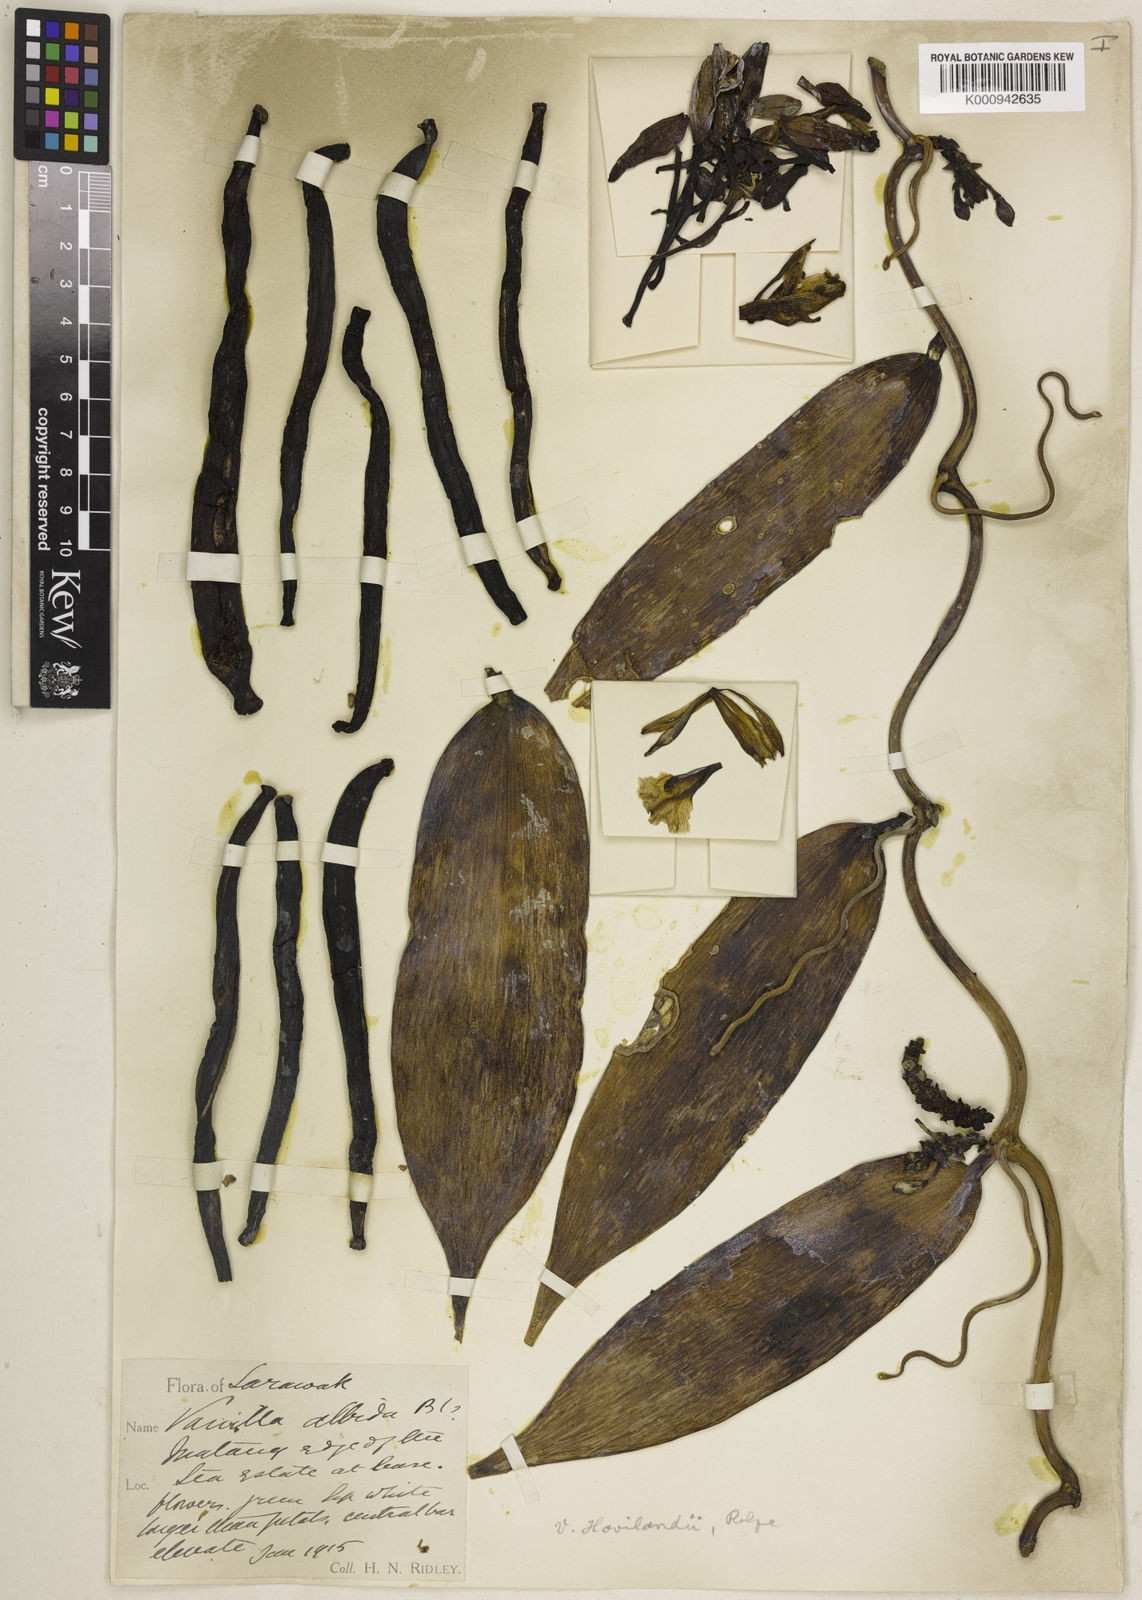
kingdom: Plantae
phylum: Tracheophyta
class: Liliopsida
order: Asparagales
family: Orchidaceae
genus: Vanilla
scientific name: Vanilla havilandii
